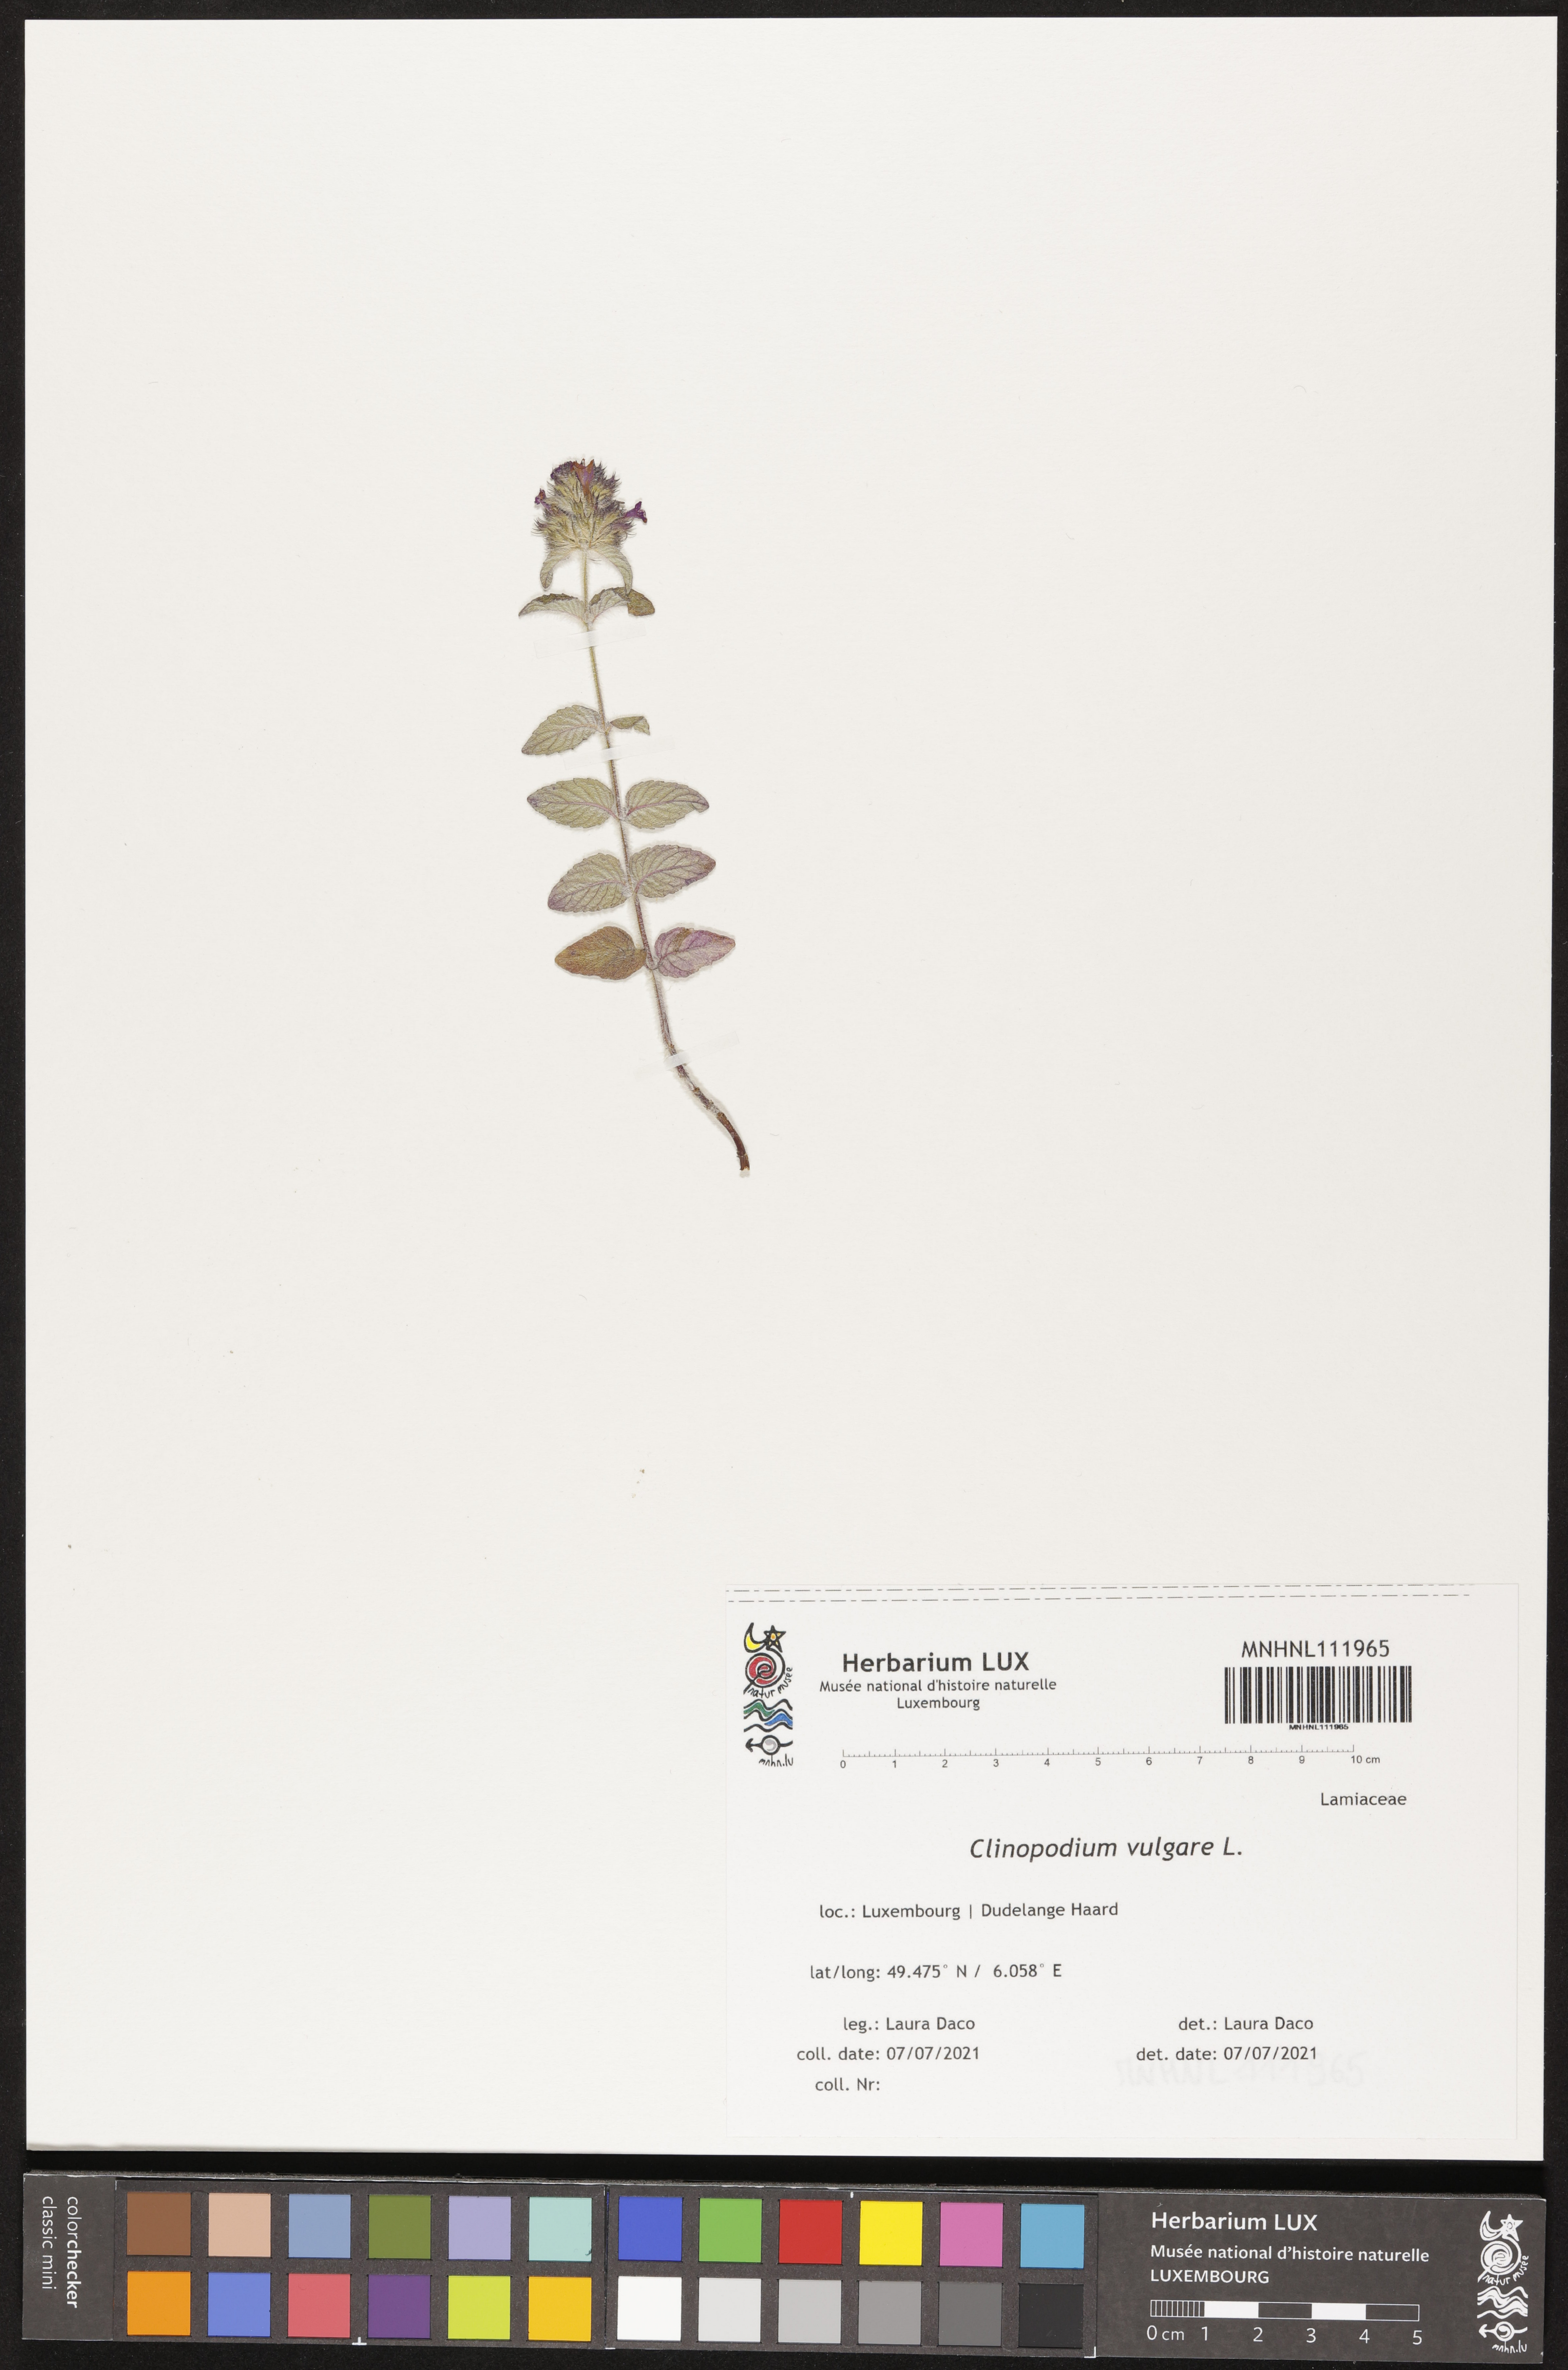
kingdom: Plantae
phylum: Tracheophyta
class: Magnoliopsida
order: Lamiales
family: Lamiaceae
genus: Clinopodium
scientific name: Clinopodium vulgare
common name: Wild basil
